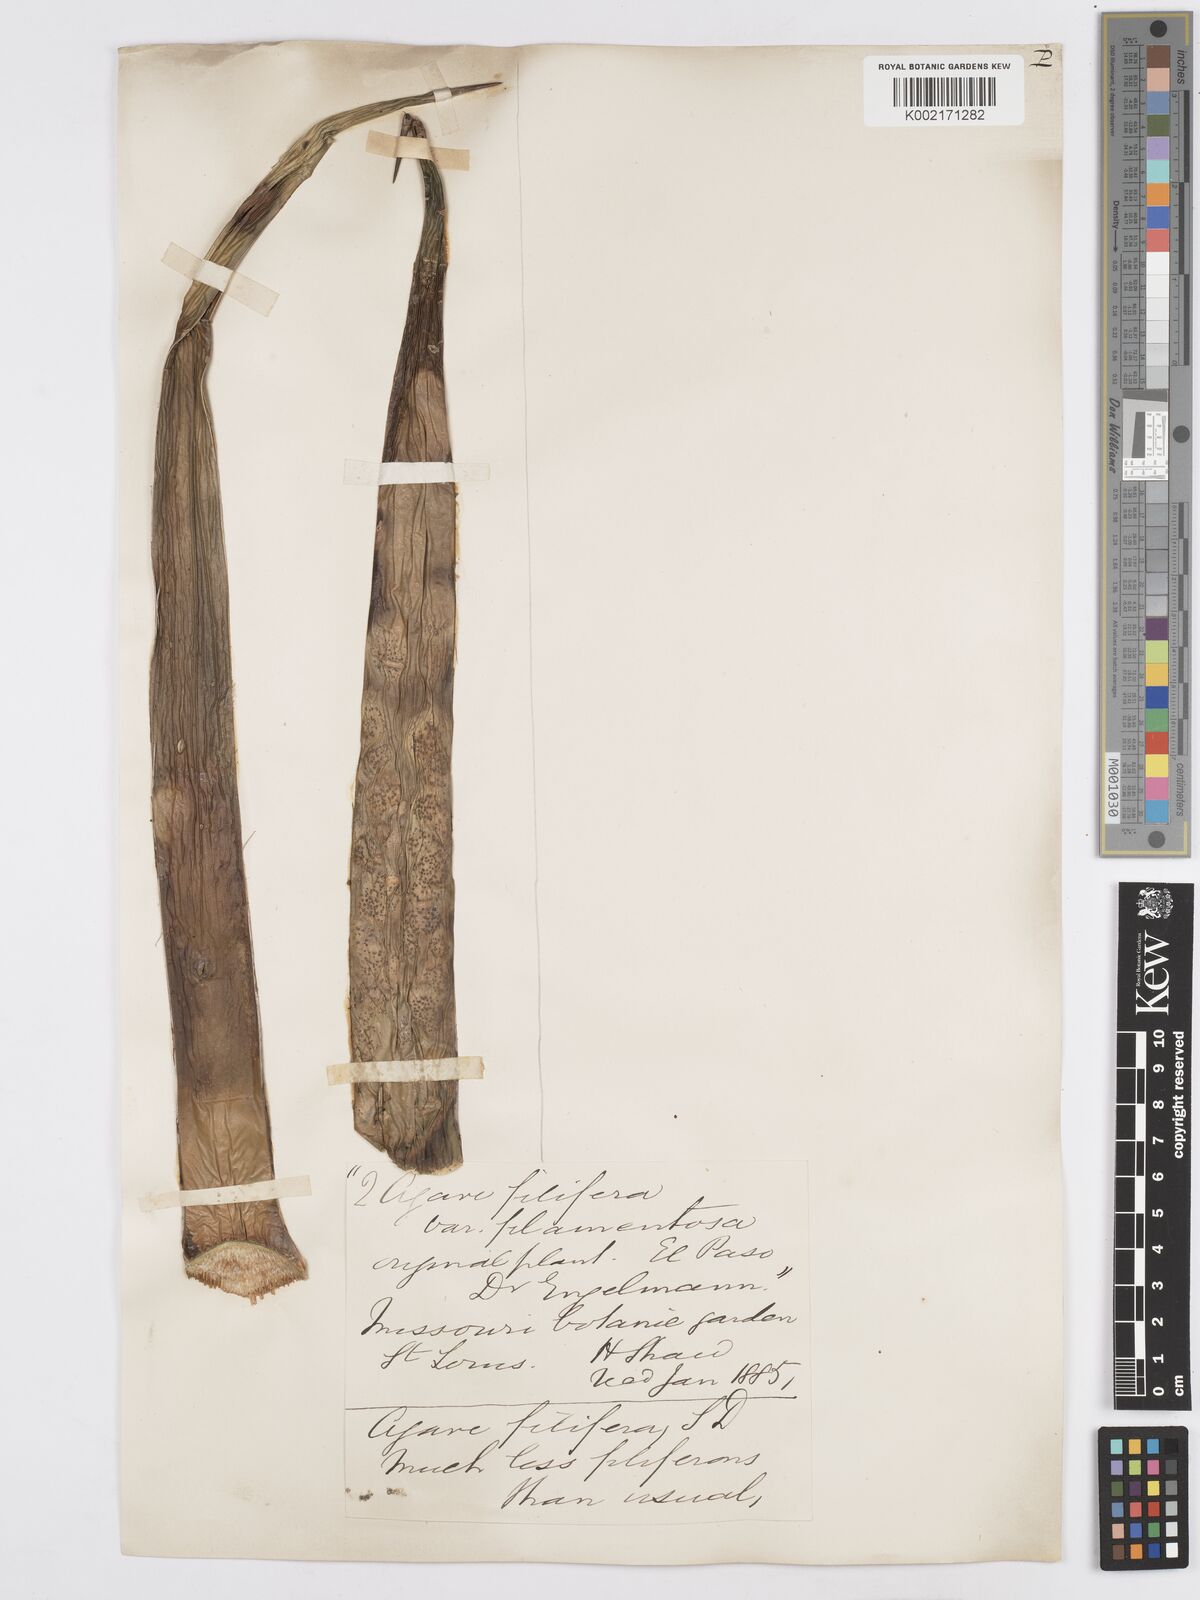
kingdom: Plantae
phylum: Tracheophyta
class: Liliopsida
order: Asparagales
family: Asparagaceae
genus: Agave
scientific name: Agave filifera
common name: Thread agave
